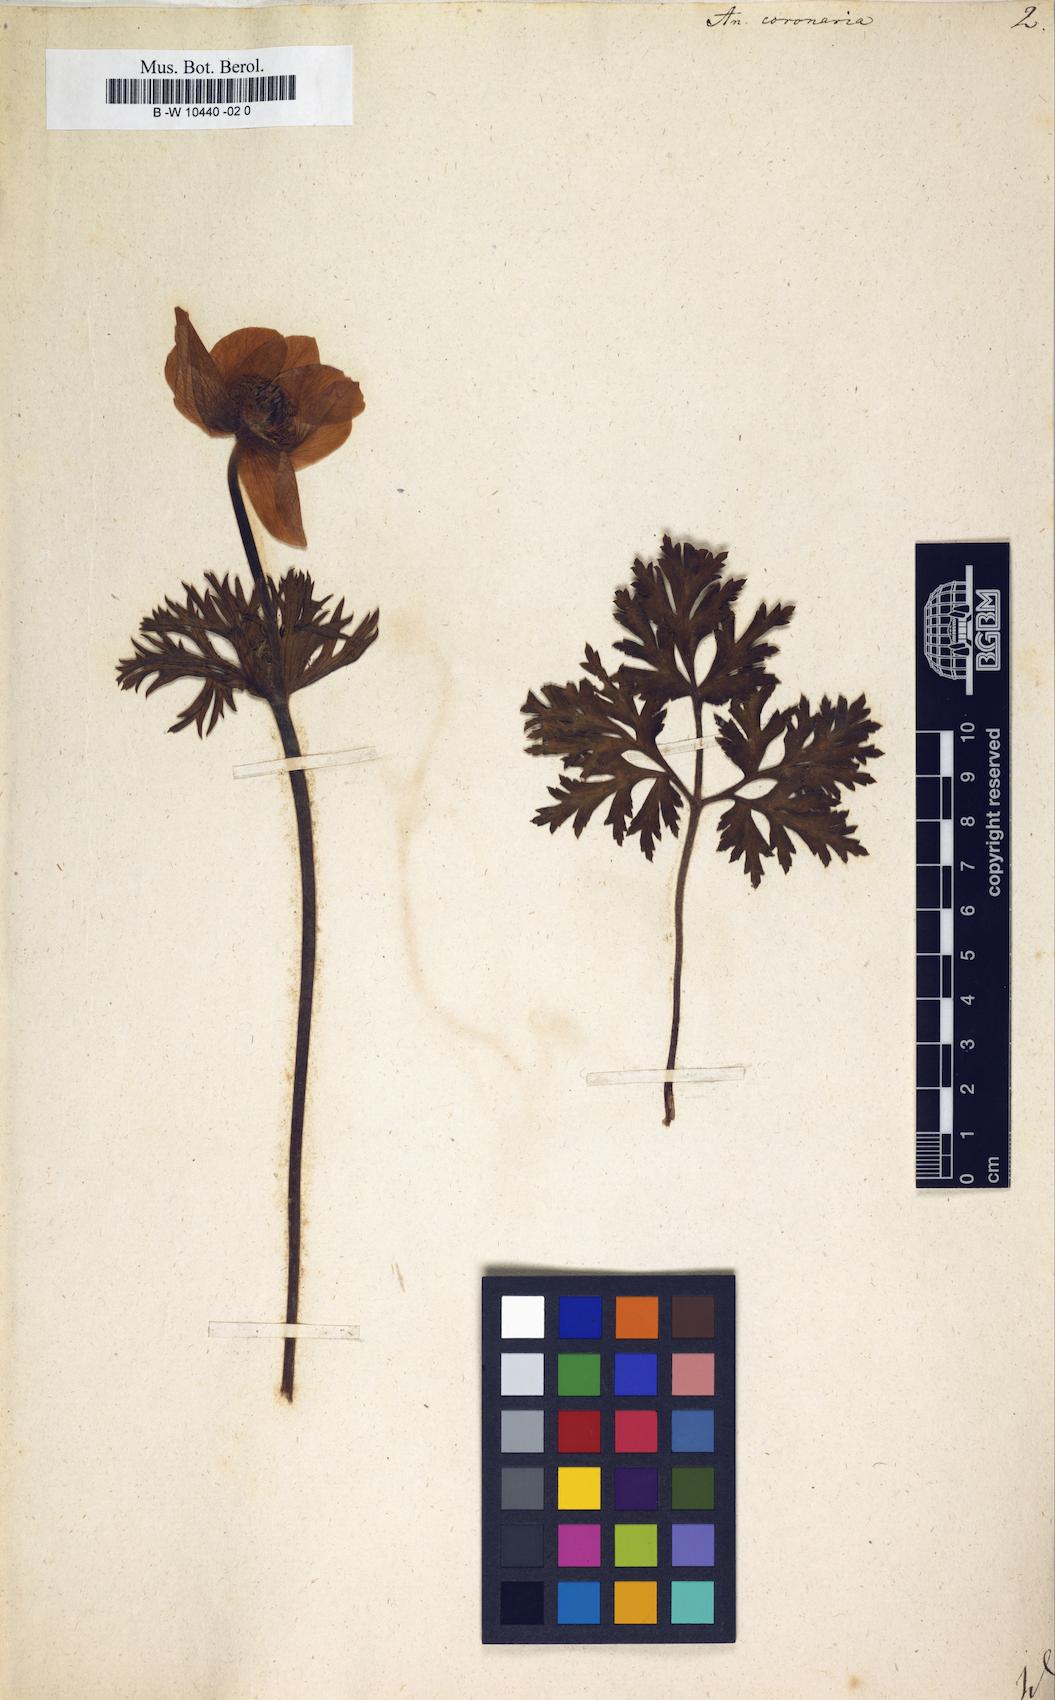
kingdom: Plantae
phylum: Tracheophyta
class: Magnoliopsida
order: Ranunculales
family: Ranunculaceae
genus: Anemone
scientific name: Anemone coronaria
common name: Poppy anemone
